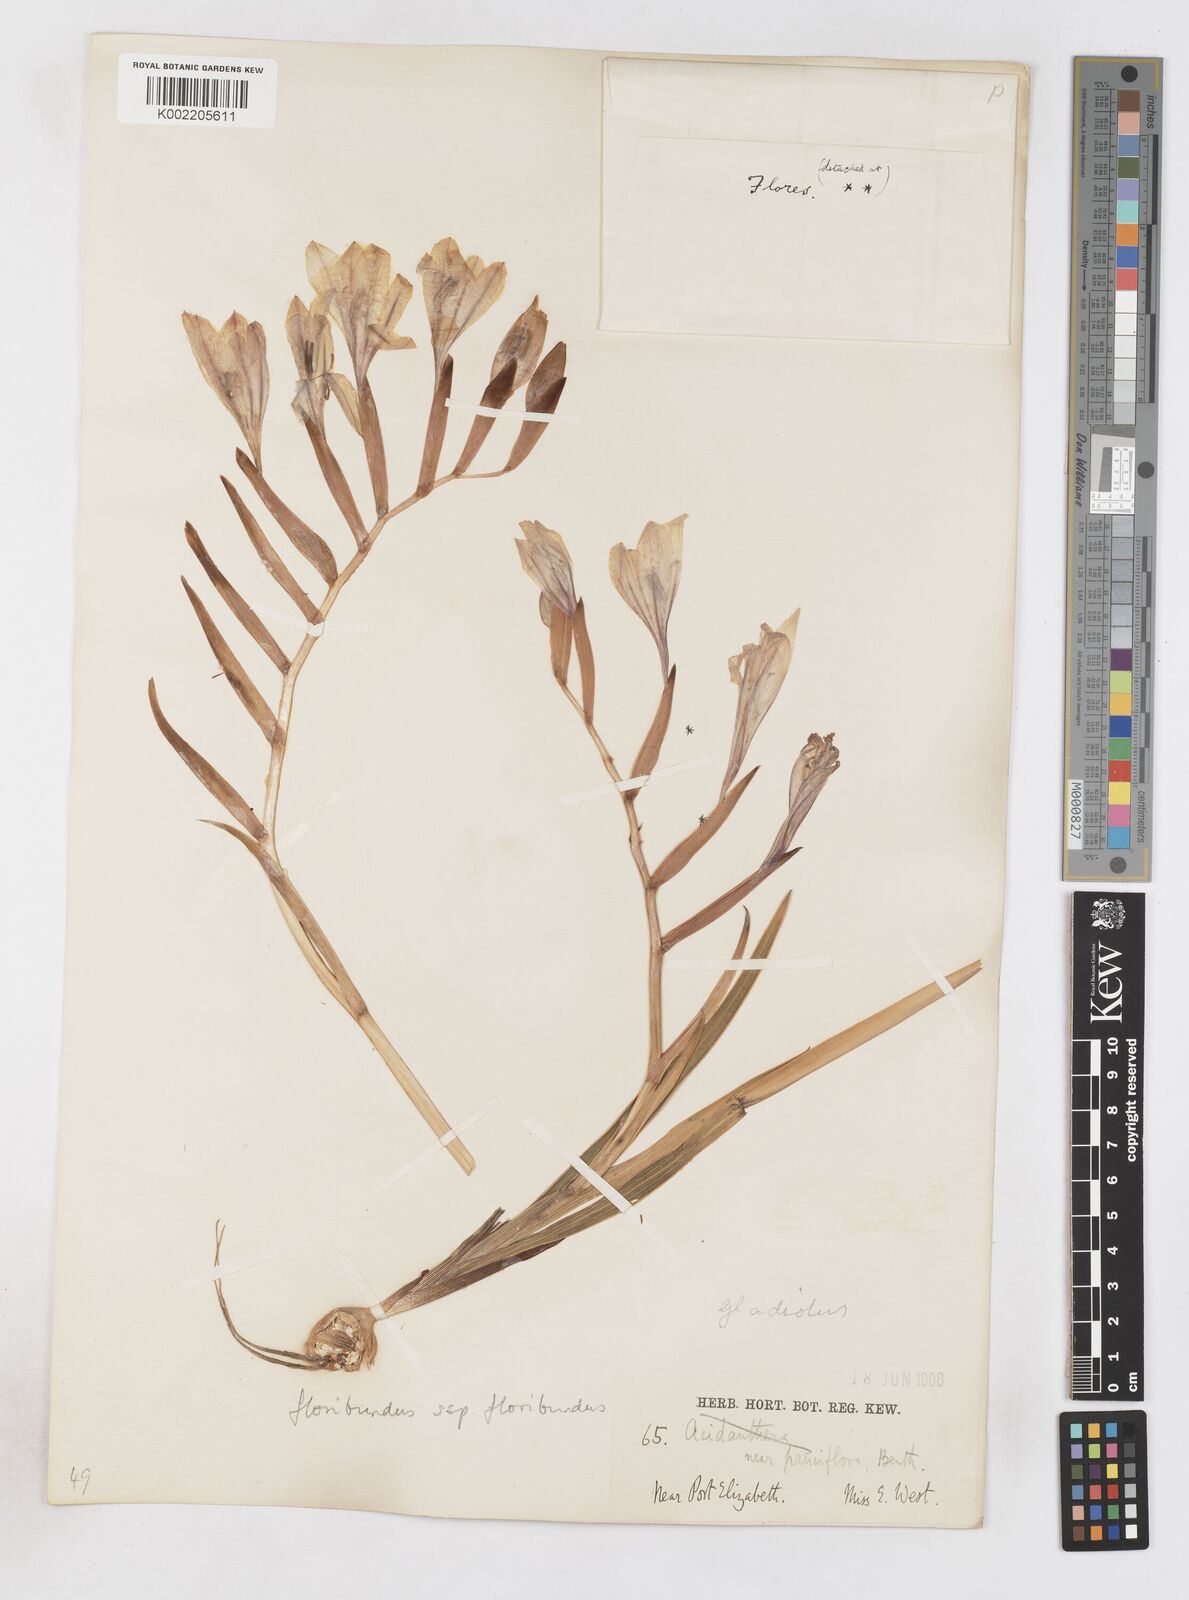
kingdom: Plantae
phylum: Tracheophyta
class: Liliopsida
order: Asparagales
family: Iridaceae
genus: Gladiolus
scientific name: Gladiolus floribundus
